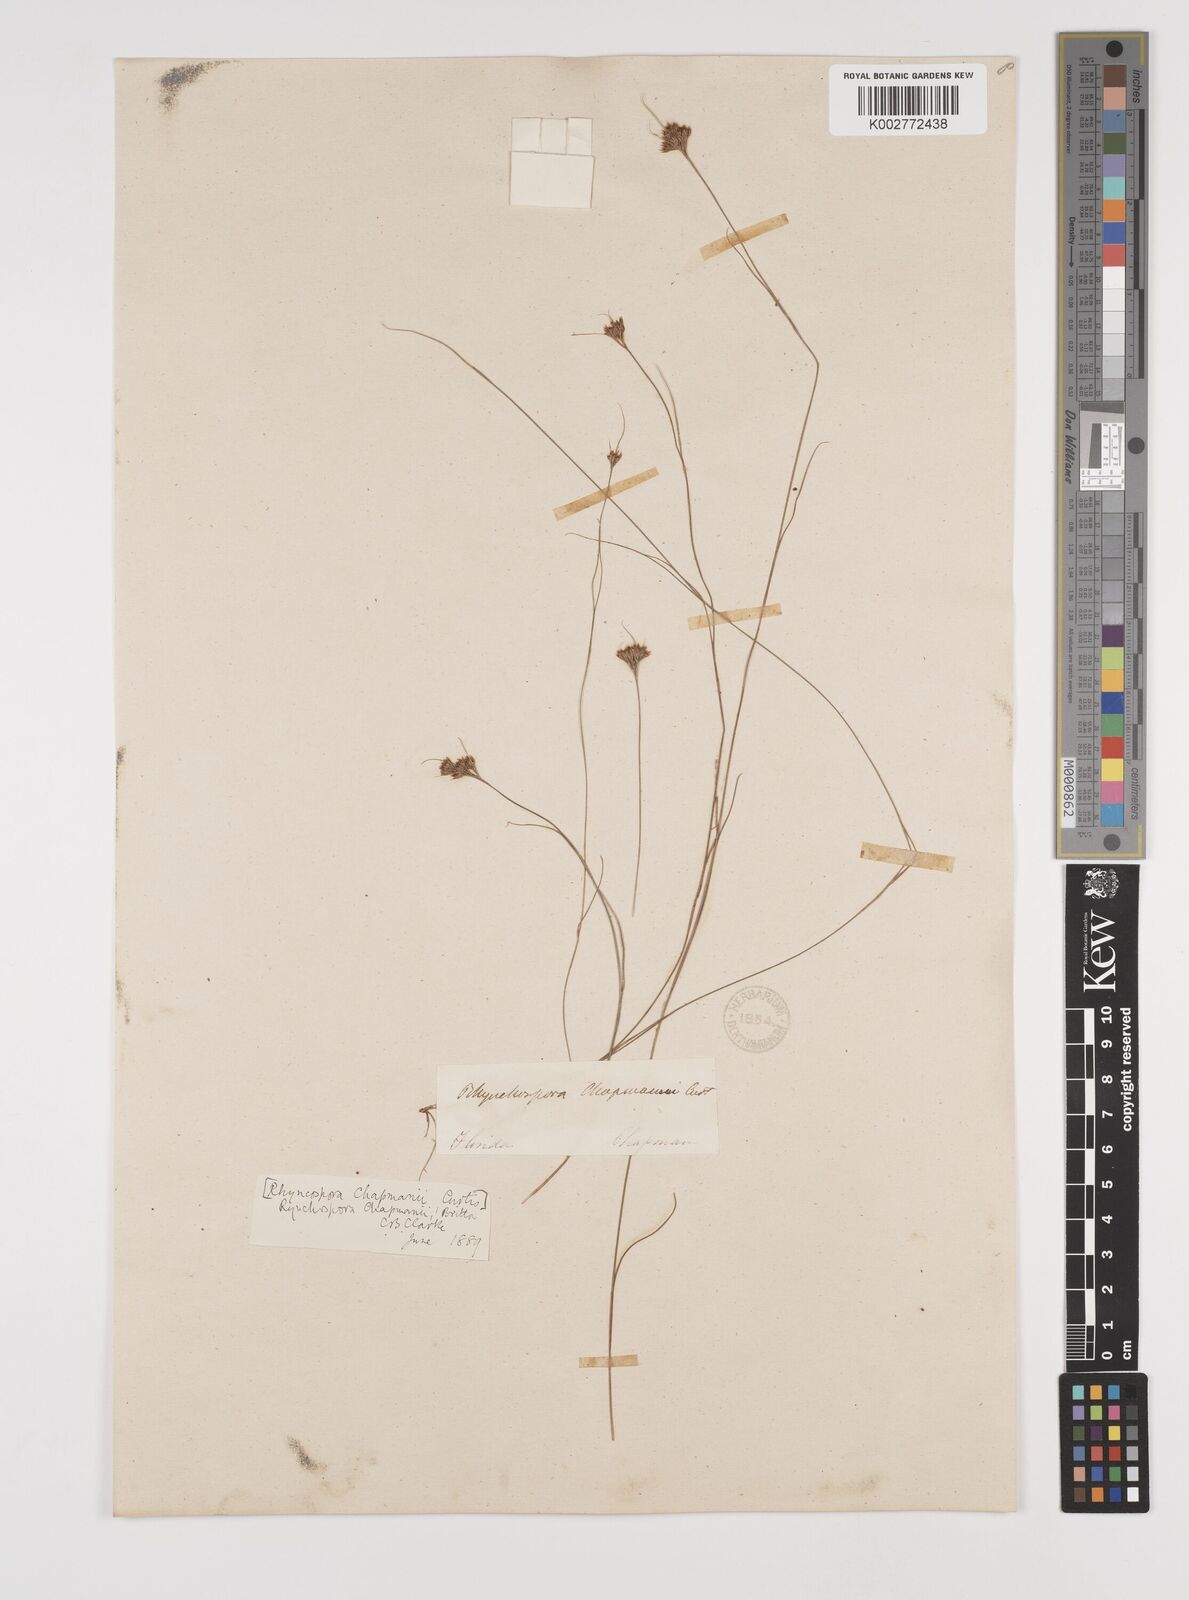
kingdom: Plantae
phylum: Tracheophyta
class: Liliopsida
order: Poales
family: Cyperaceae
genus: Rhynchospora
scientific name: Rhynchospora
